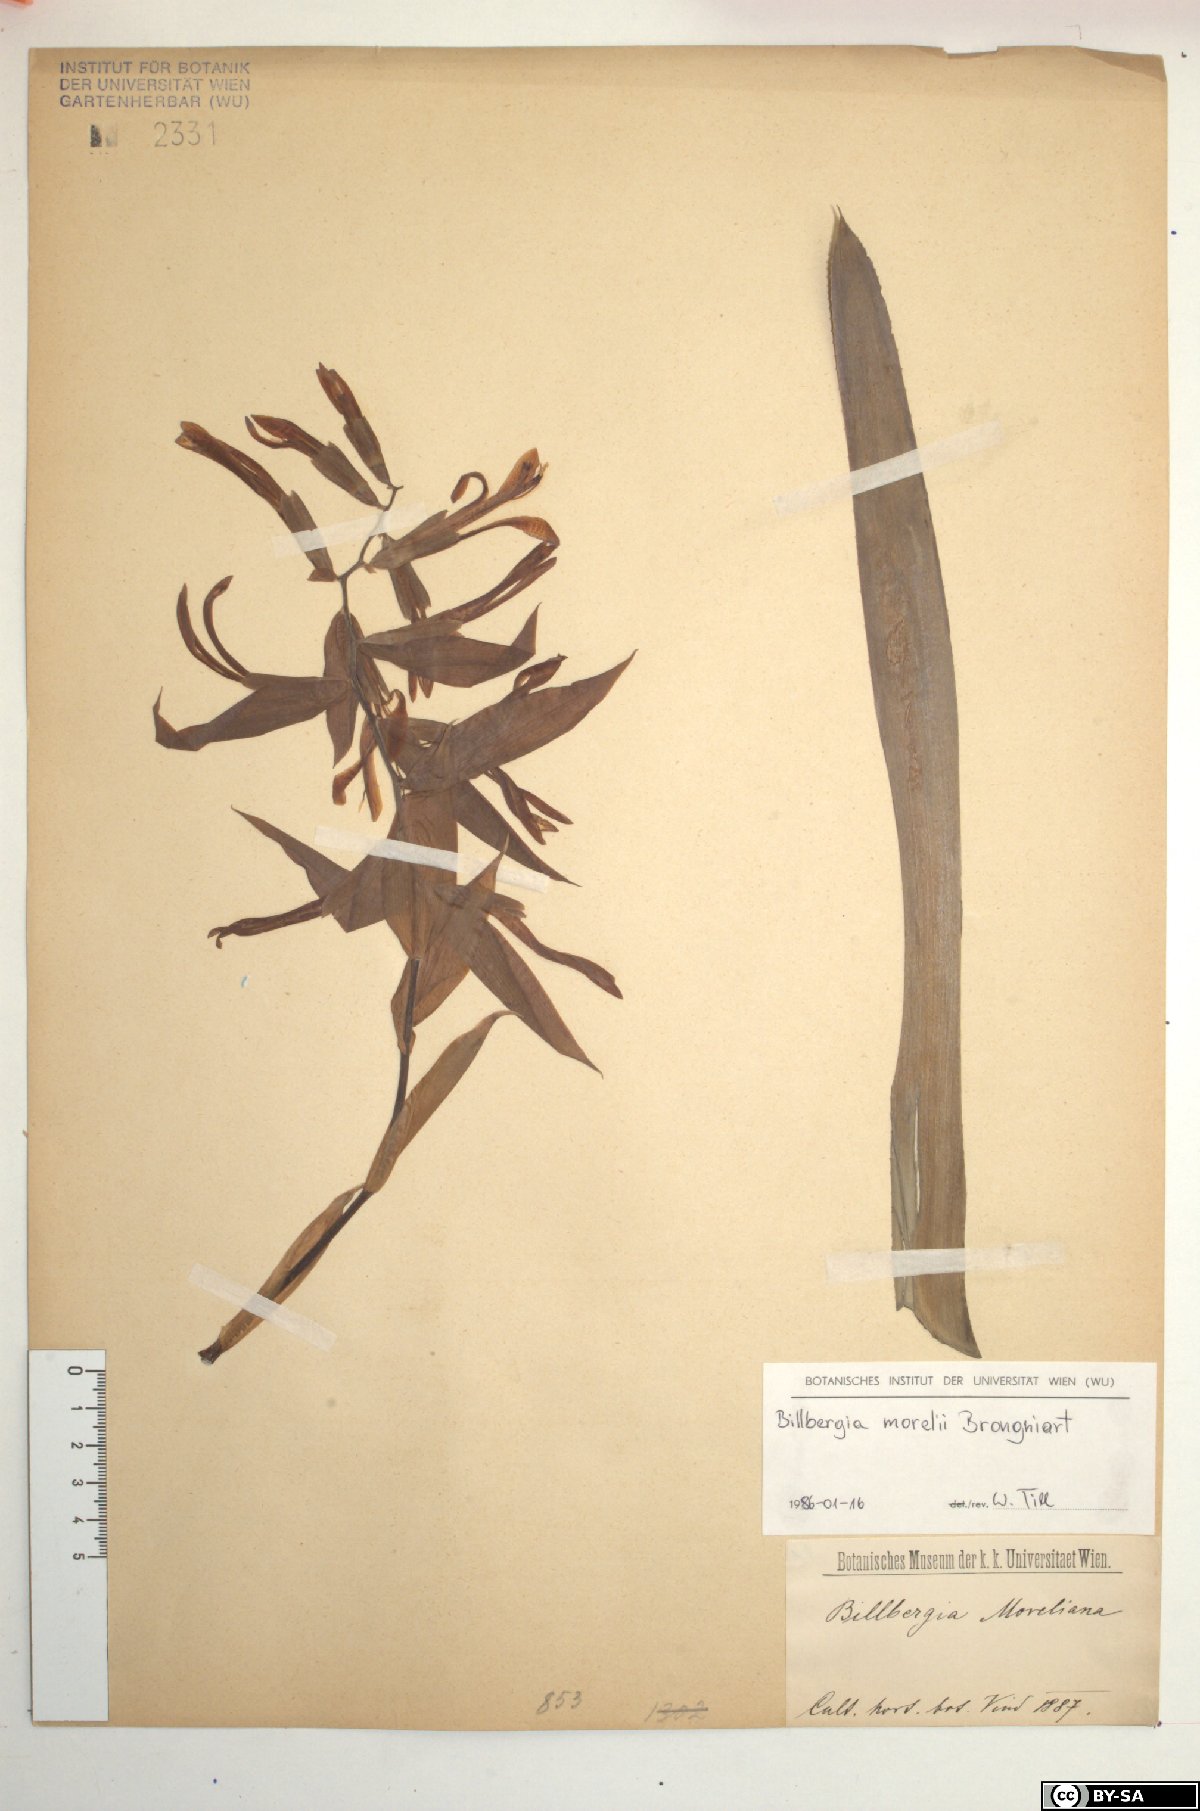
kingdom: Plantae
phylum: Tracheophyta
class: Liliopsida
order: Poales
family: Bromeliaceae
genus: Billbergia
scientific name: Billbergia morelii
